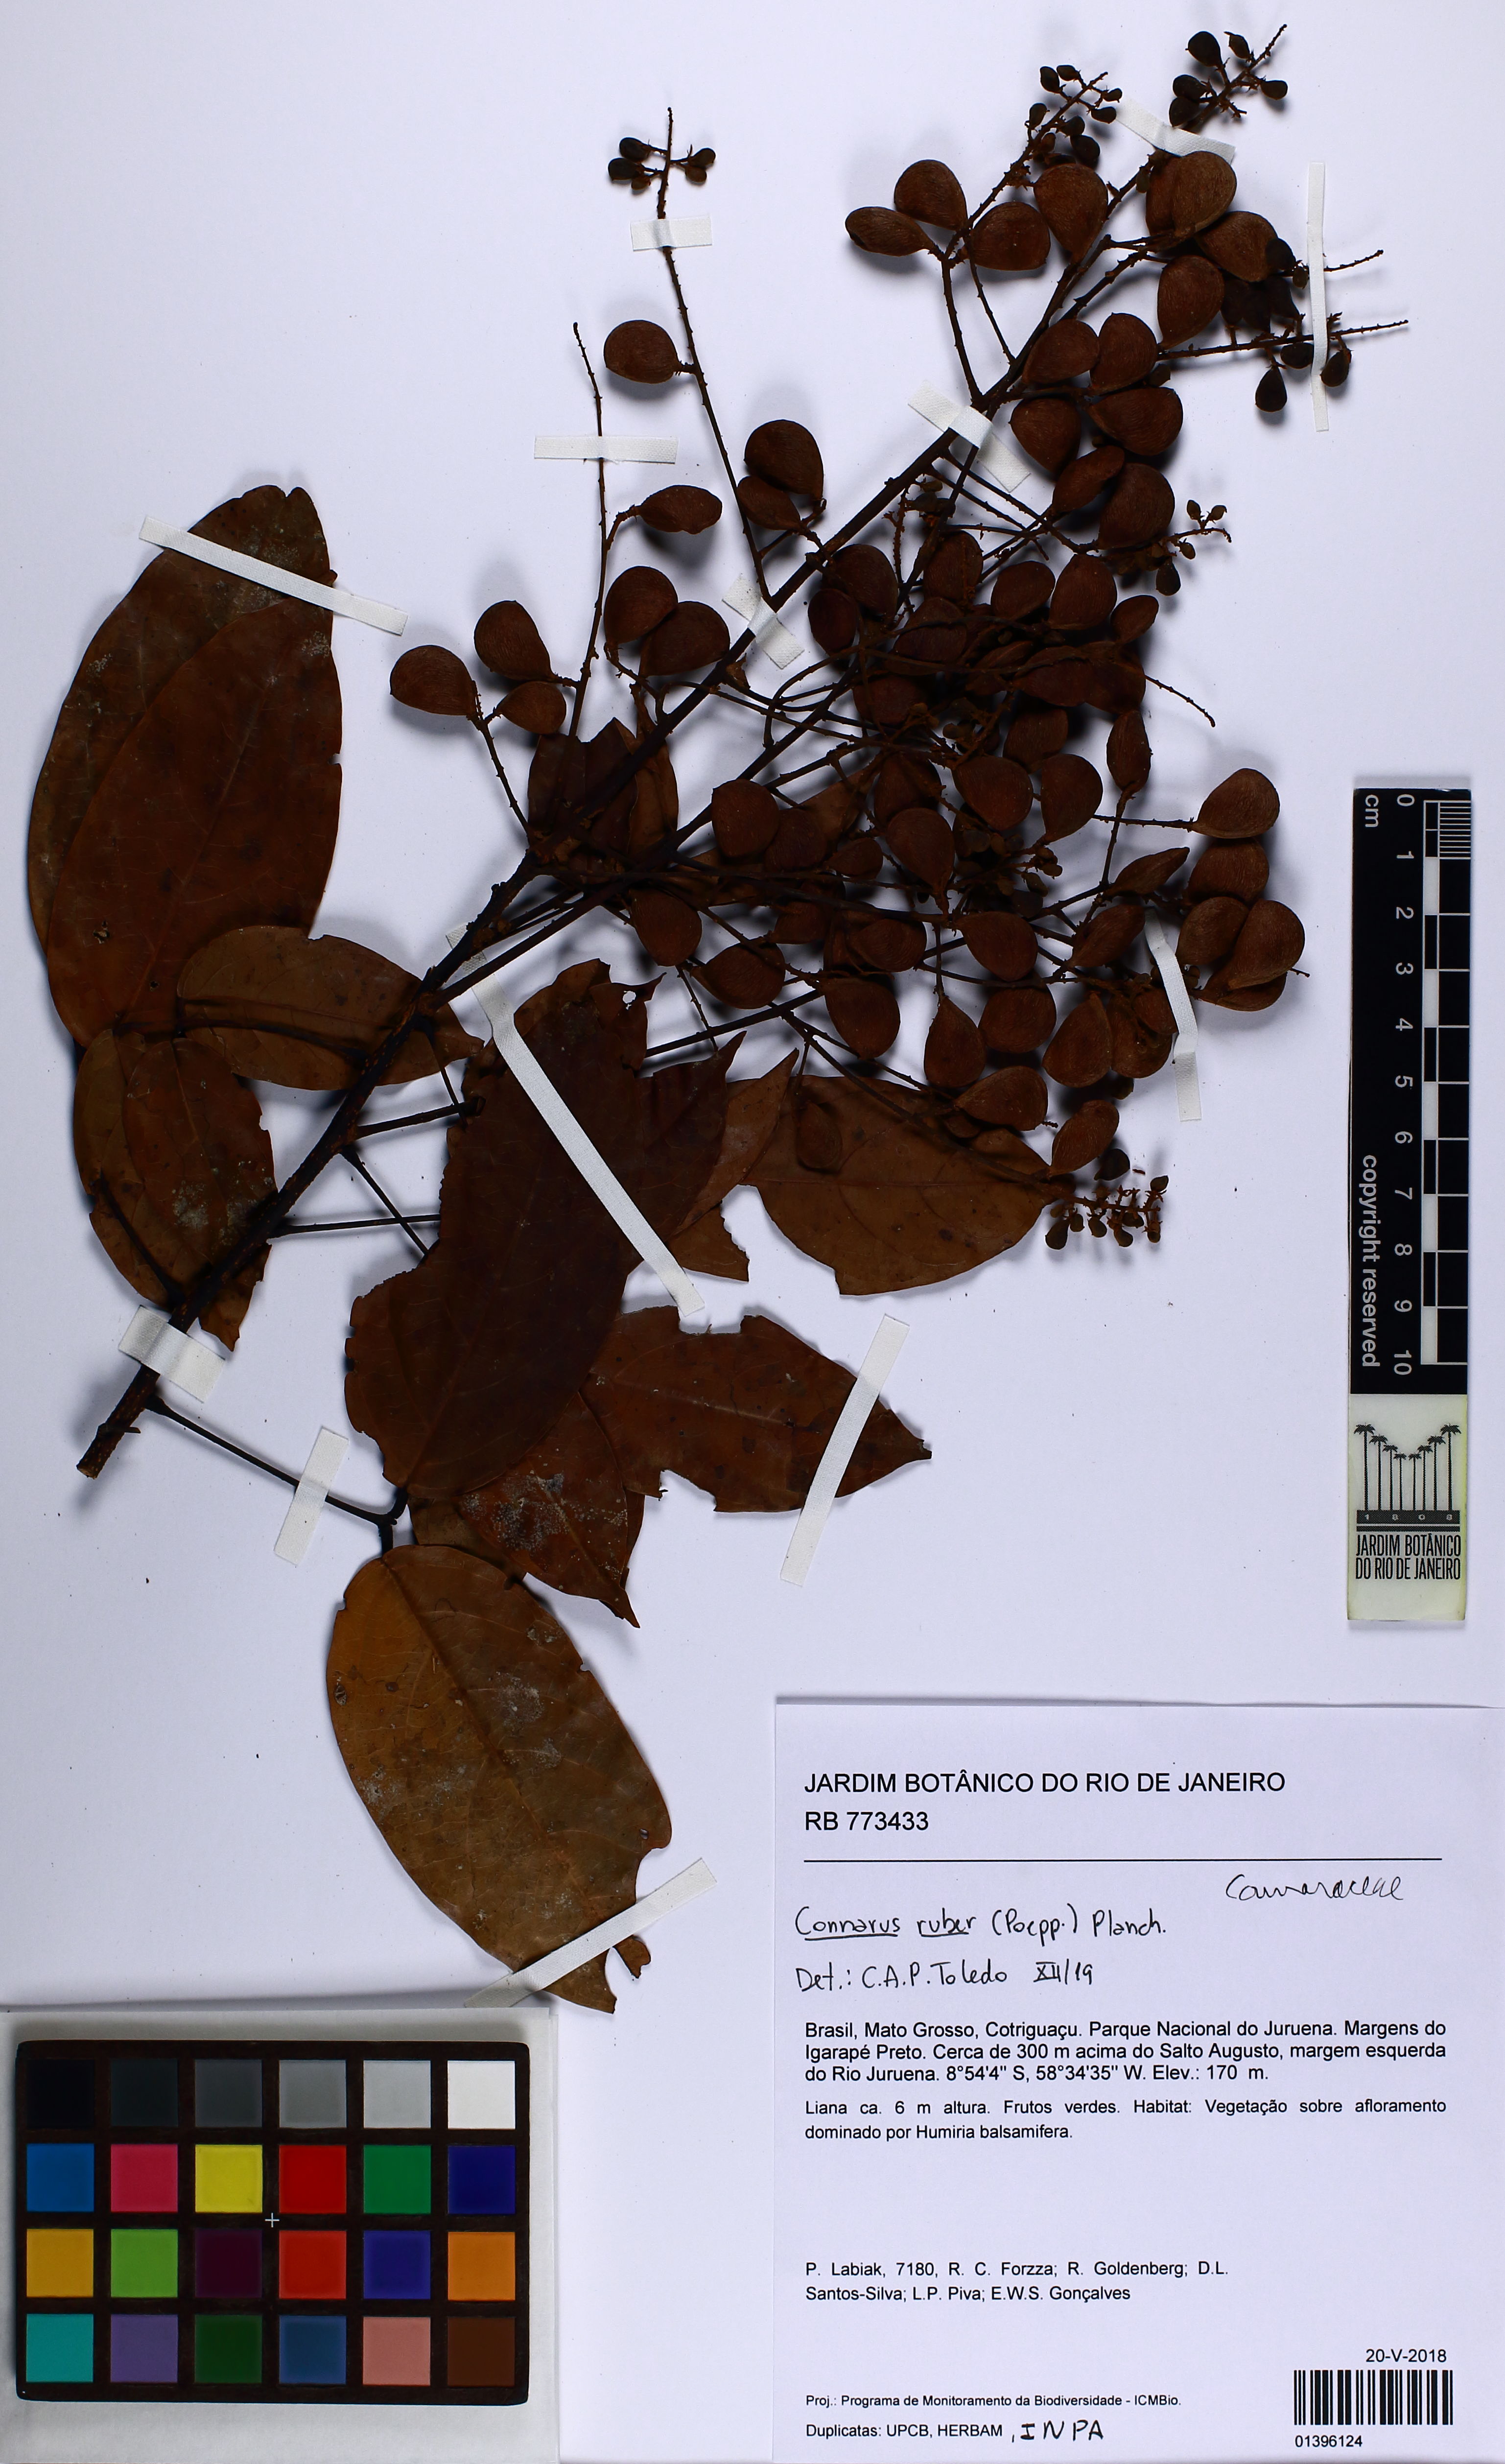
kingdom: Plantae
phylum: Tracheophyta
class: Magnoliopsida
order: Oxalidales
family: Connaraceae
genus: Connarus
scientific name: Connarus ruber
